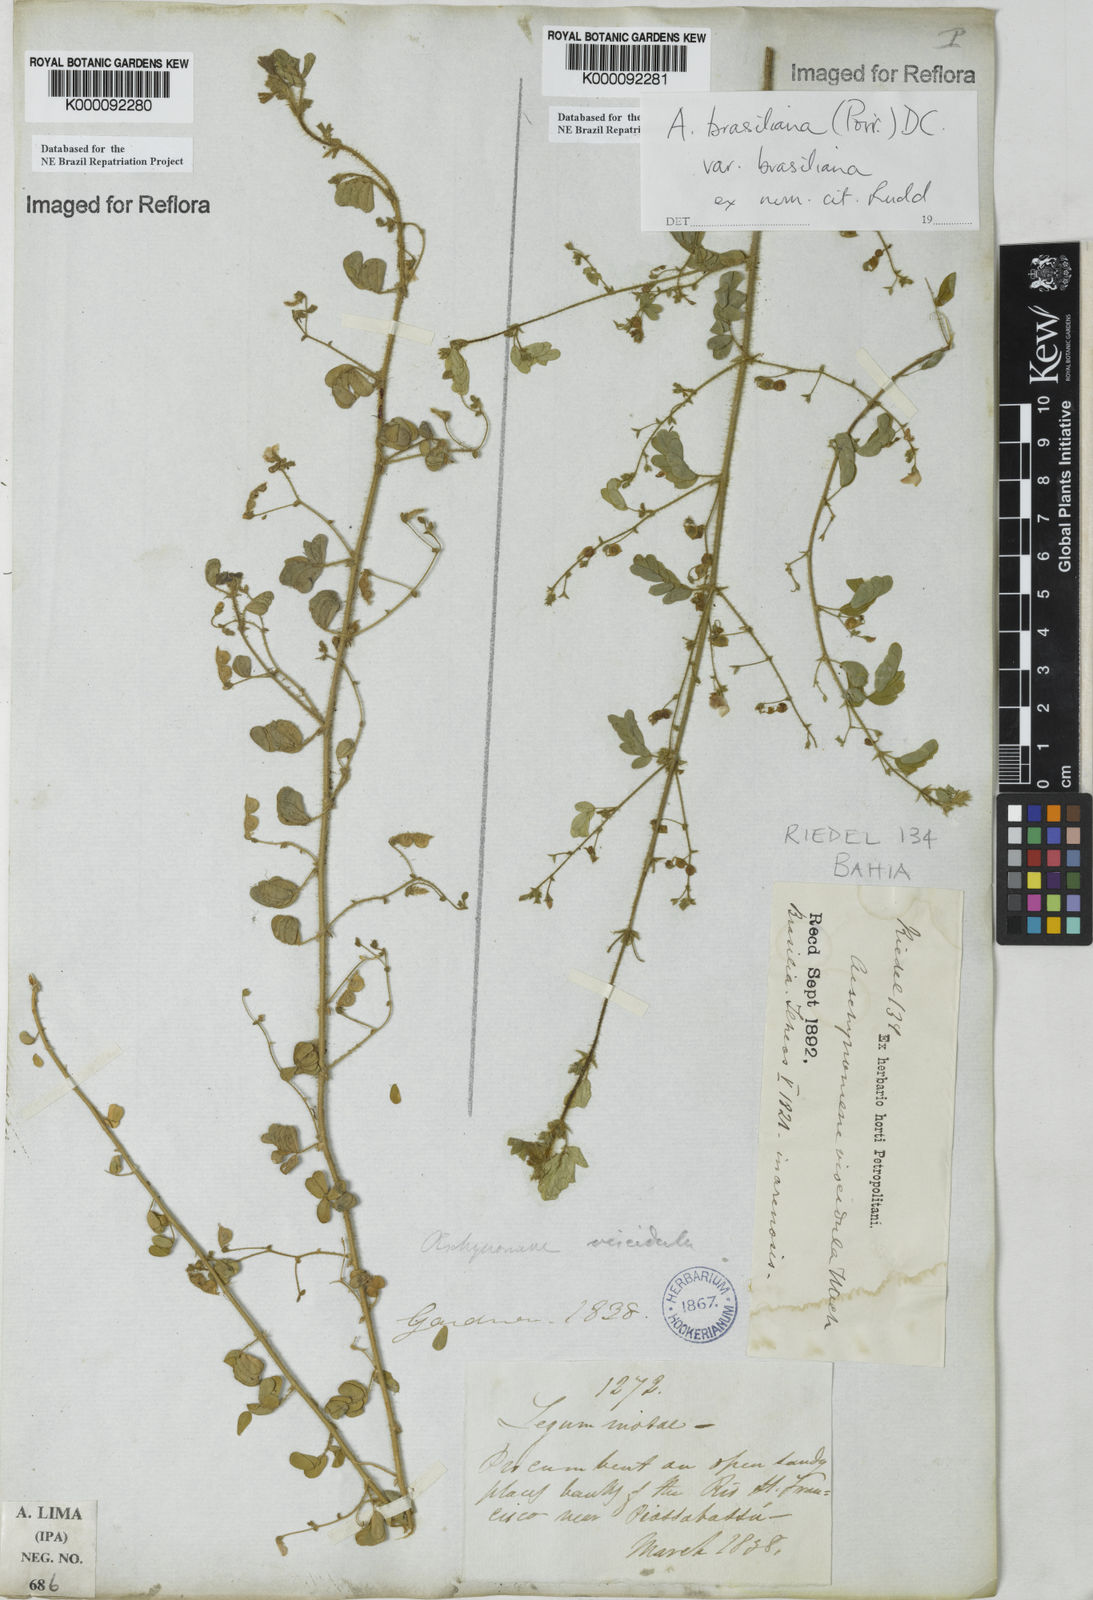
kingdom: Plantae
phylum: Tracheophyta
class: Magnoliopsida
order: Fabales
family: Fabaceae
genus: Ctenodon
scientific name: Ctenodon brasilianus
